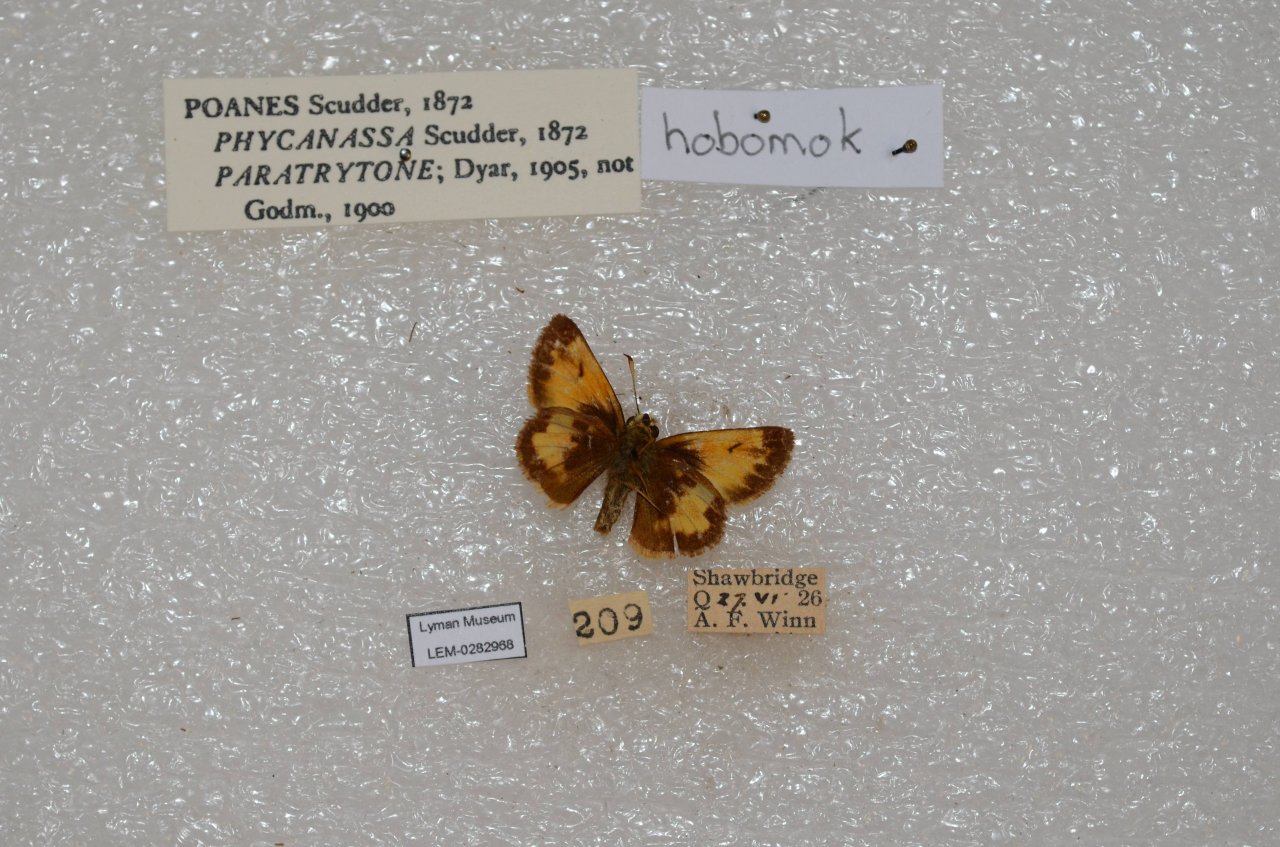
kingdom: Animalia
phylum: Arthropoda
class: Insecta
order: Lepidoptera
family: Hesperiidae
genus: Lon
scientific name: Lon hobomok
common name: Hobomok Skipper
